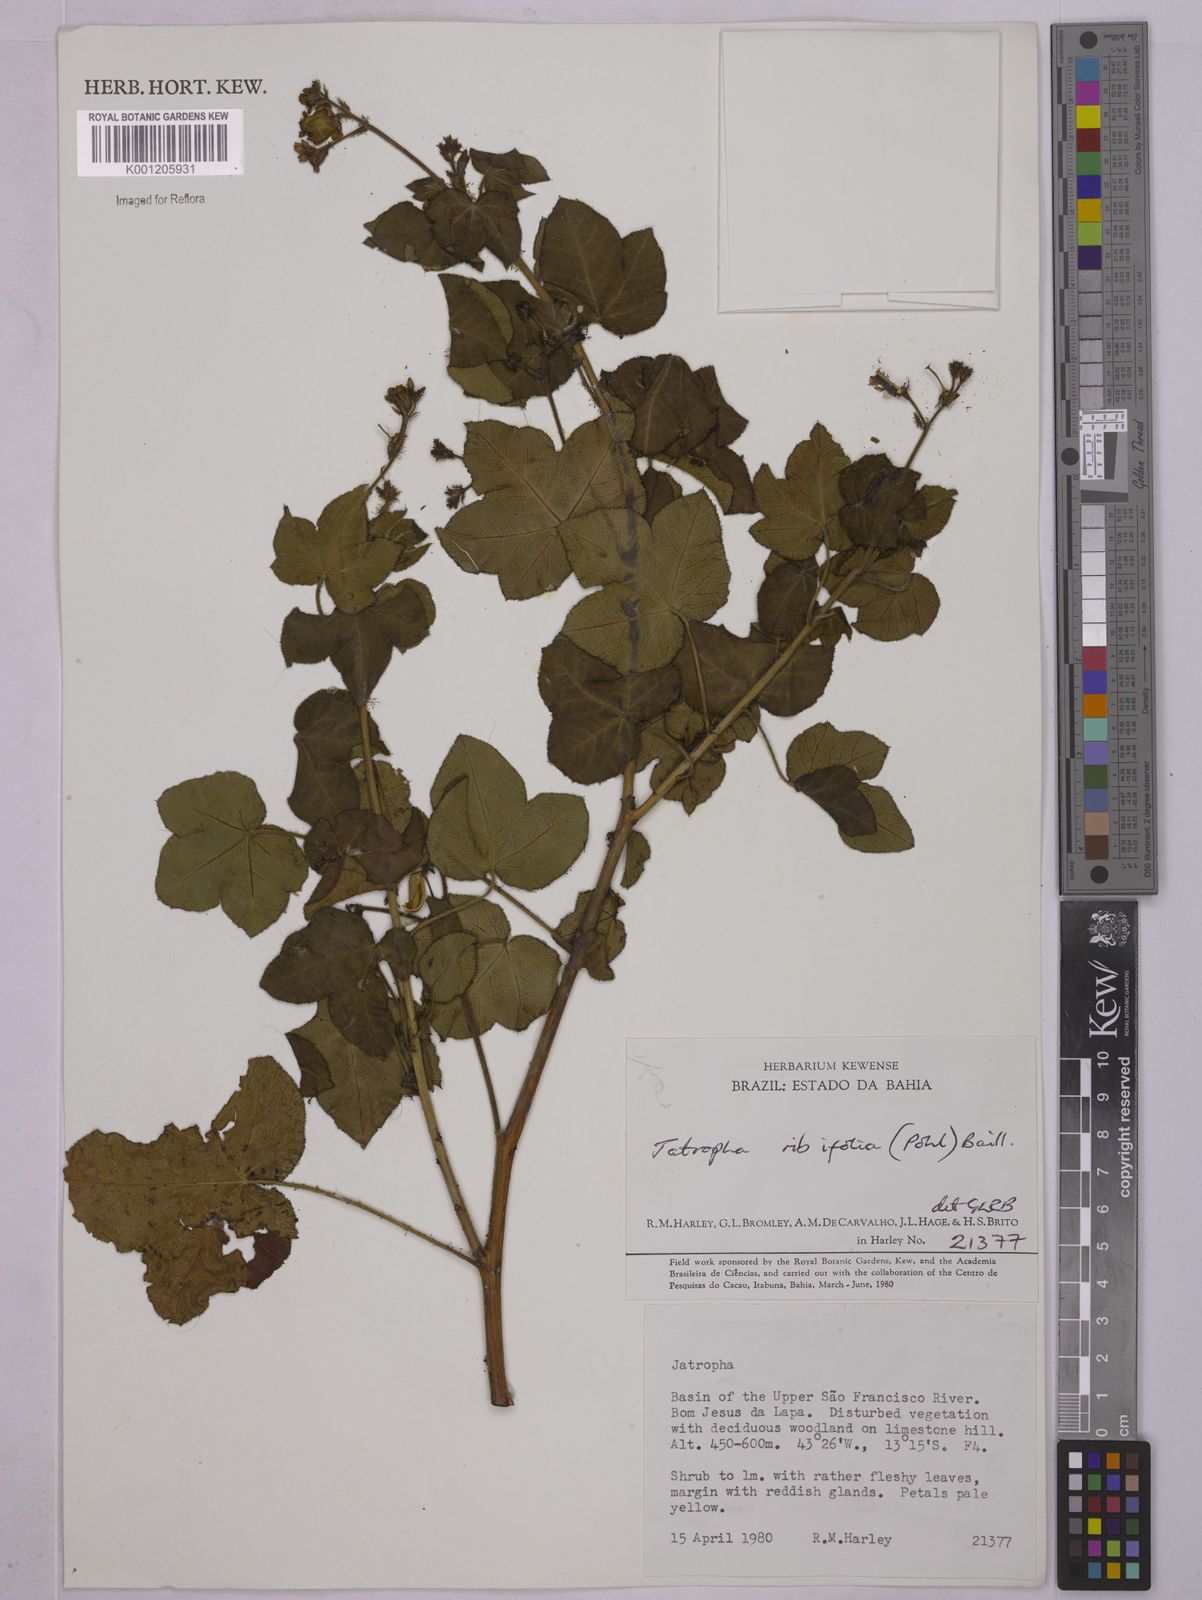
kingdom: Plantae
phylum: Tracheophyta
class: Magnoliopsida
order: Malpighiales
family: Euphorbiaceae
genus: Jatropha
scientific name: Jatropha ribifolia
